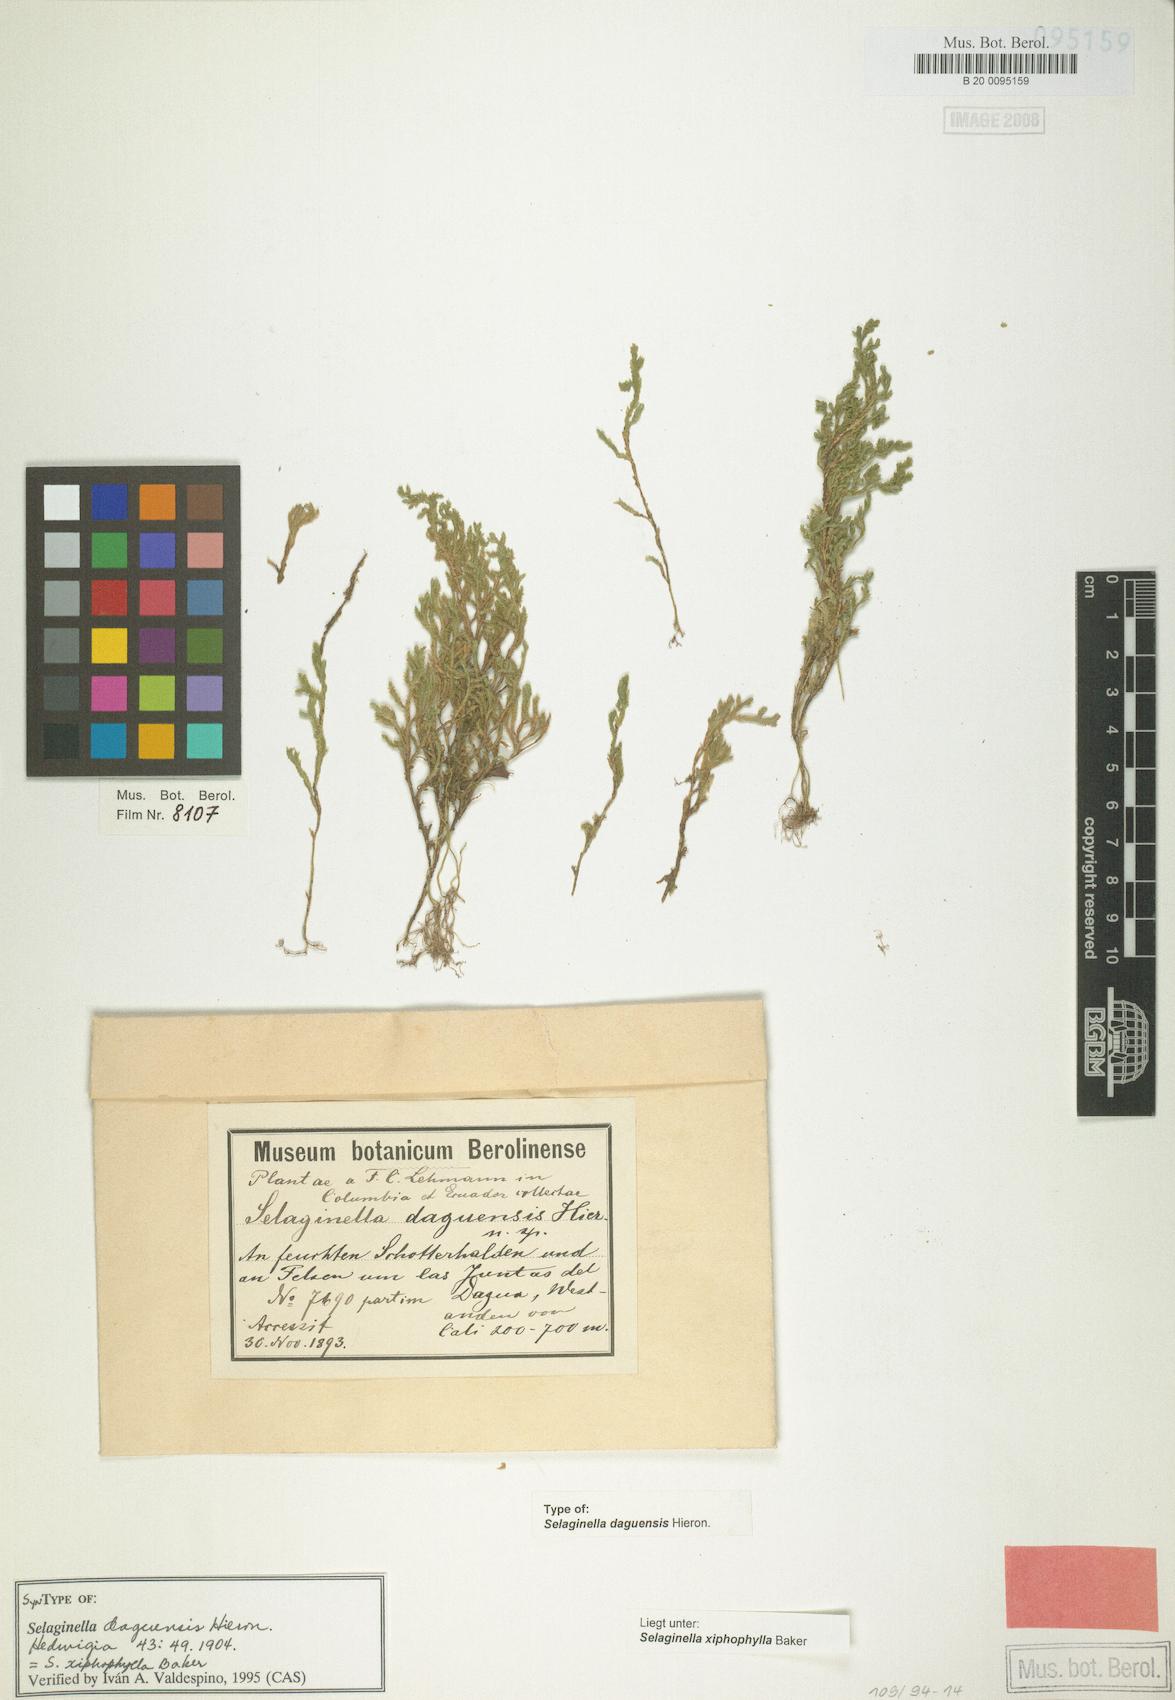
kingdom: Plantae
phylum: Tracheophyta
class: Lycopodiopsida
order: Selaginellales
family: Selaginellaceae
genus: Selaginella
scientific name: Selaginella xiphophylla
